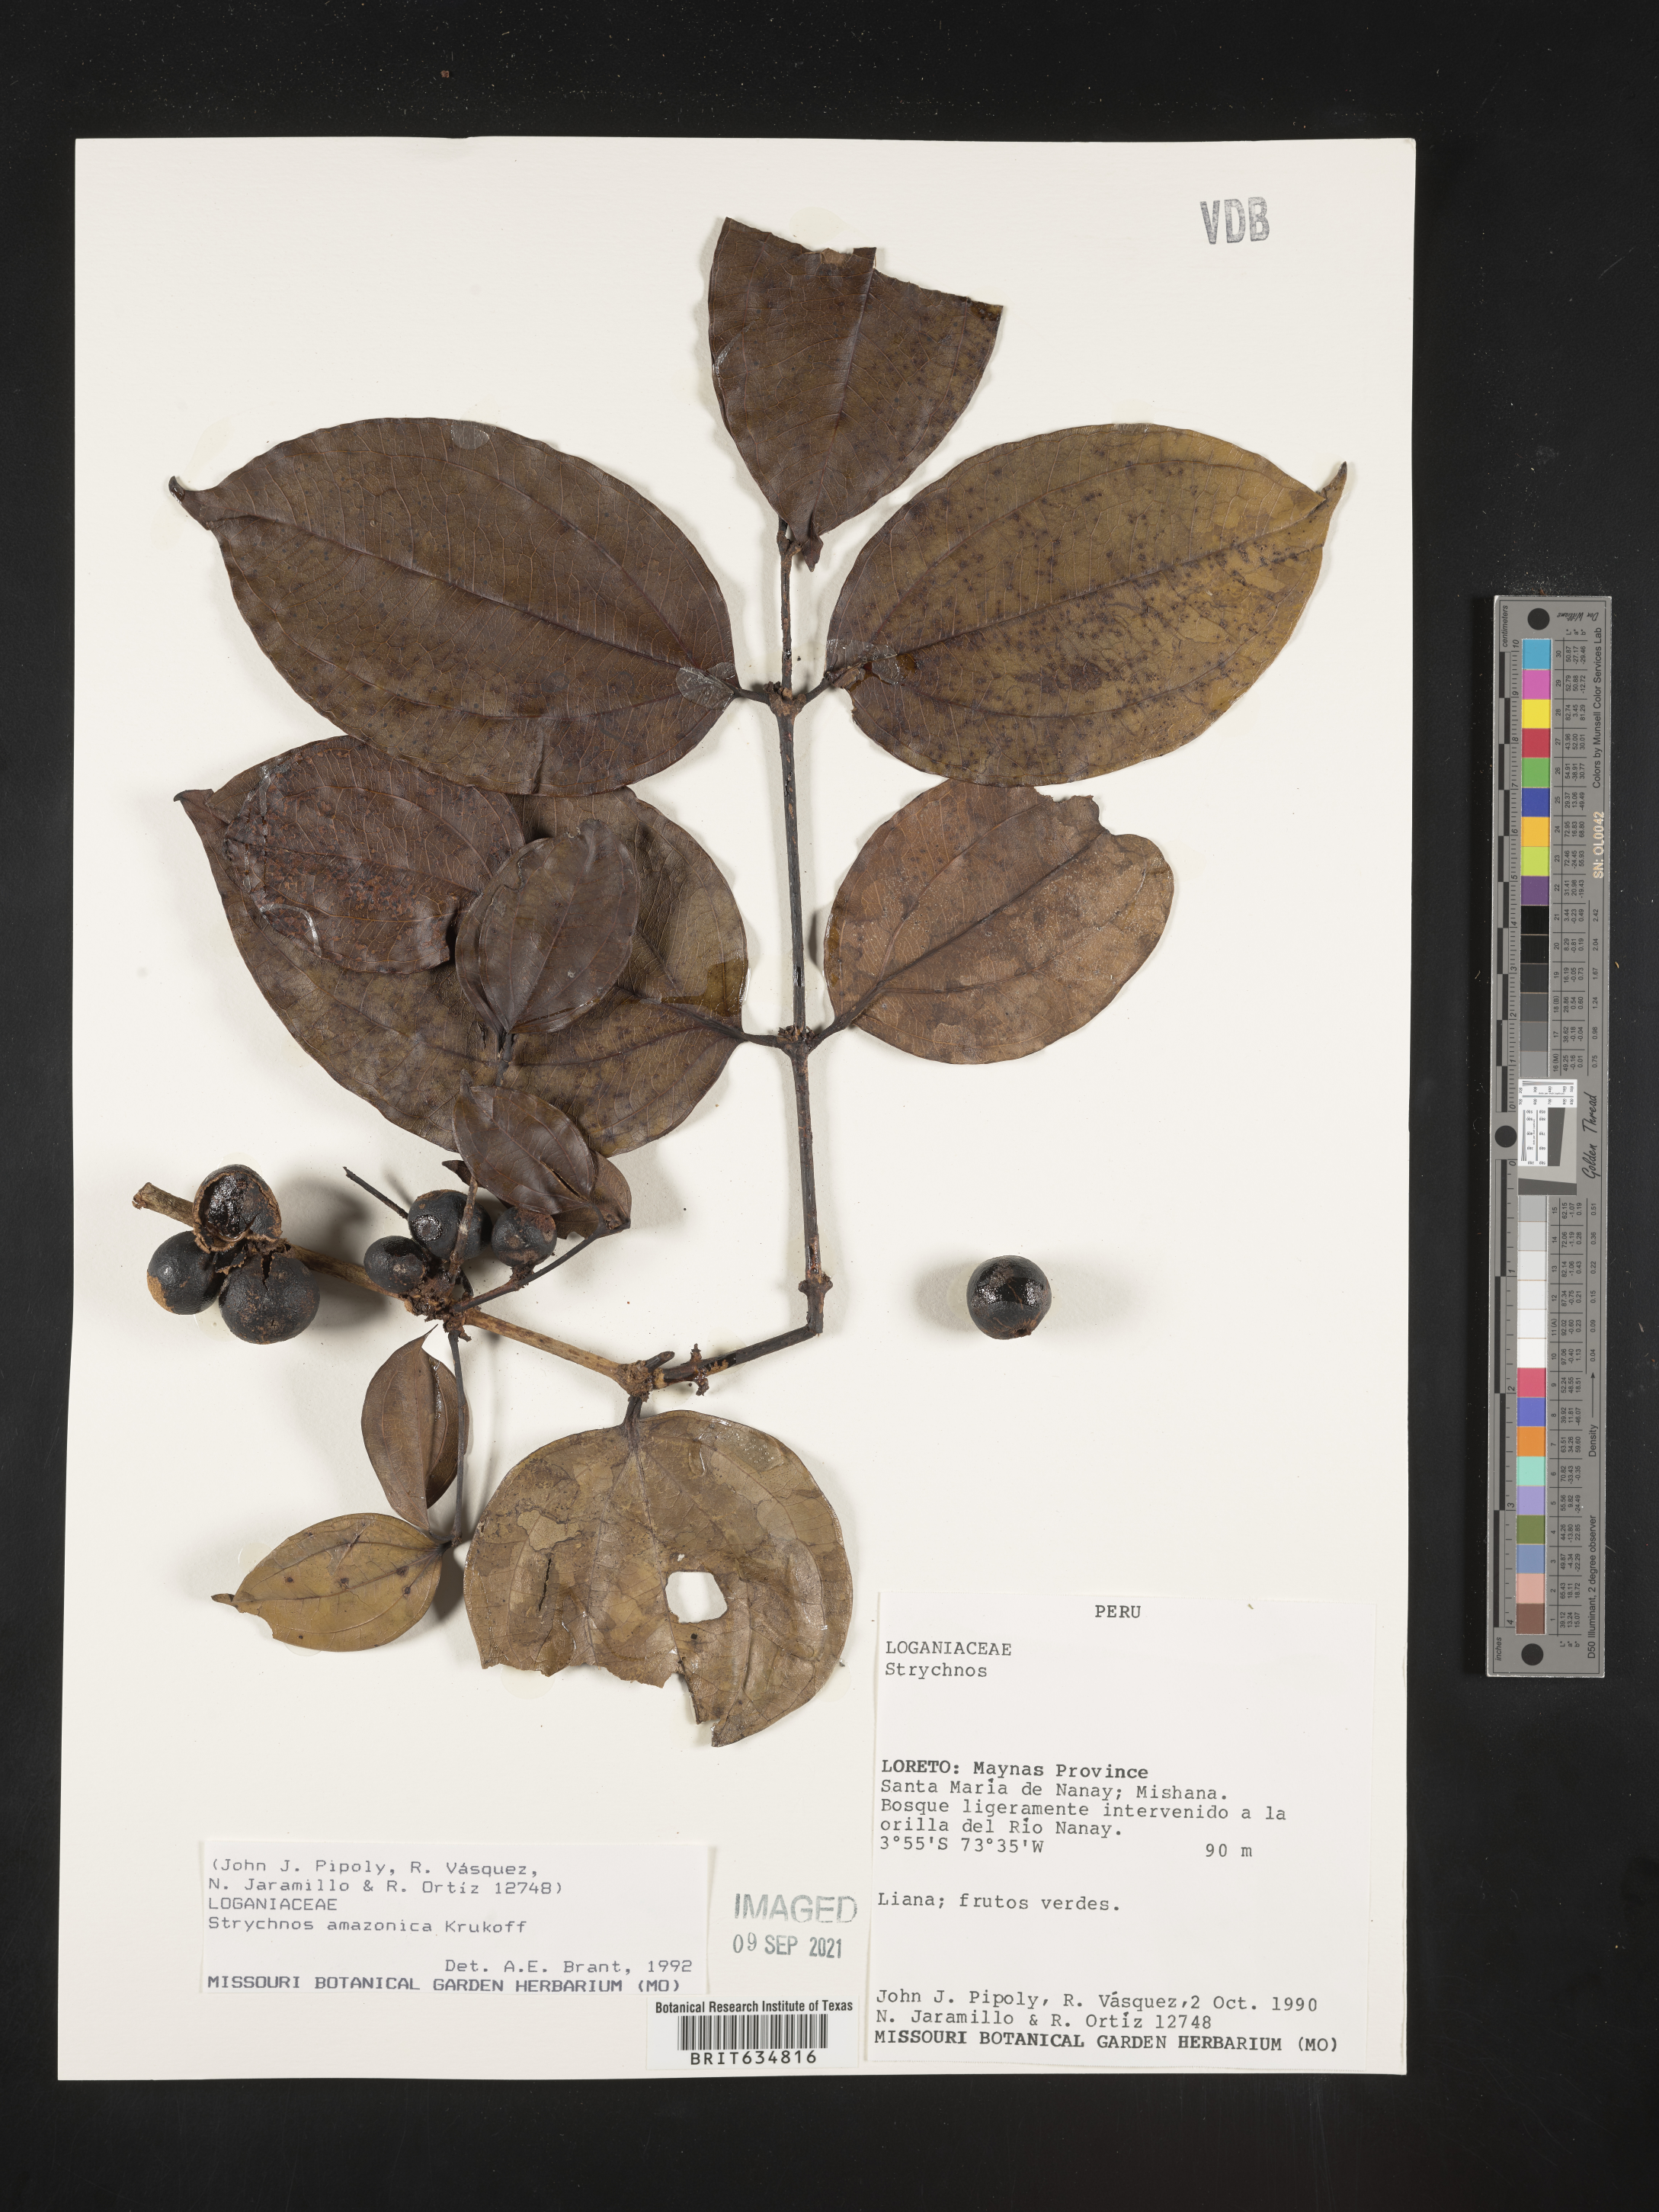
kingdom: Plantae
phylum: Tracheophyta
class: Magnoliopsida
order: Gentianales
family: Loganiaceae
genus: Strychnos
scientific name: Strychnos
